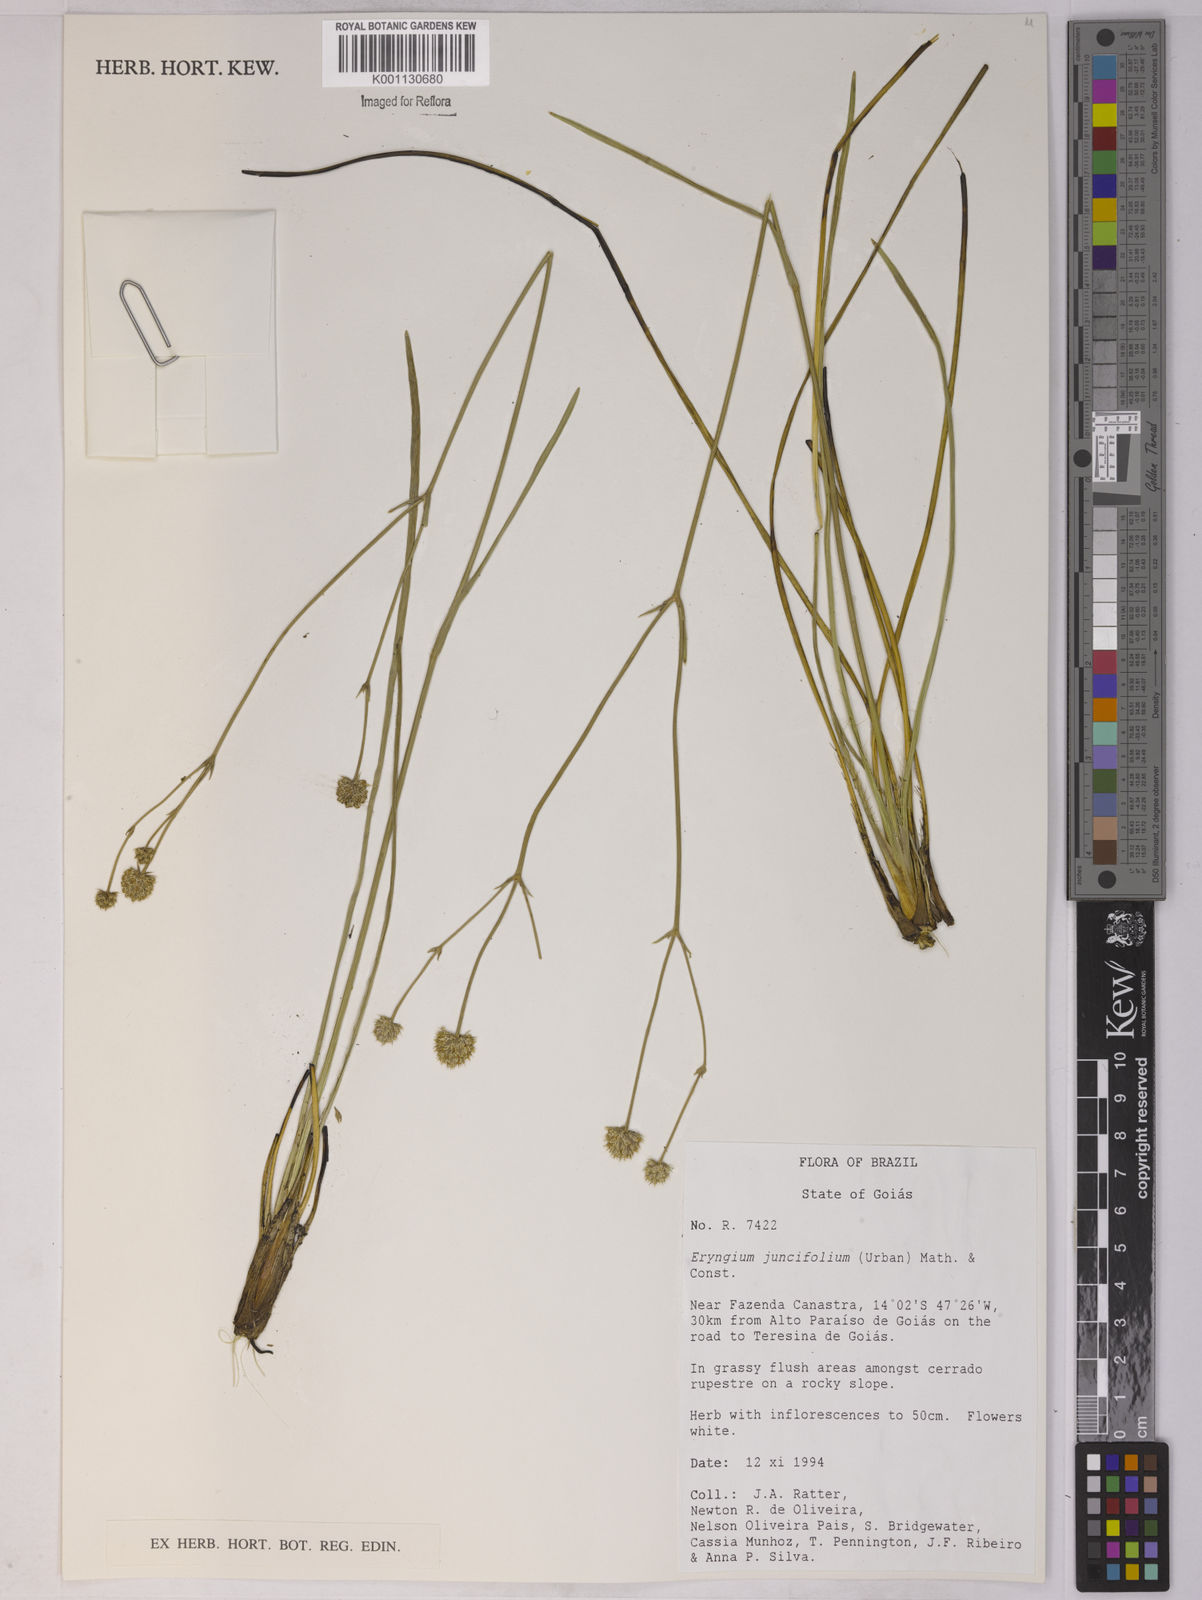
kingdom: Plantae
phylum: Tracheophyta
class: Magnoliopsida
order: Apiales
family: Apiaceae
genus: Eryngium
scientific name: Eryngium juncifolium
